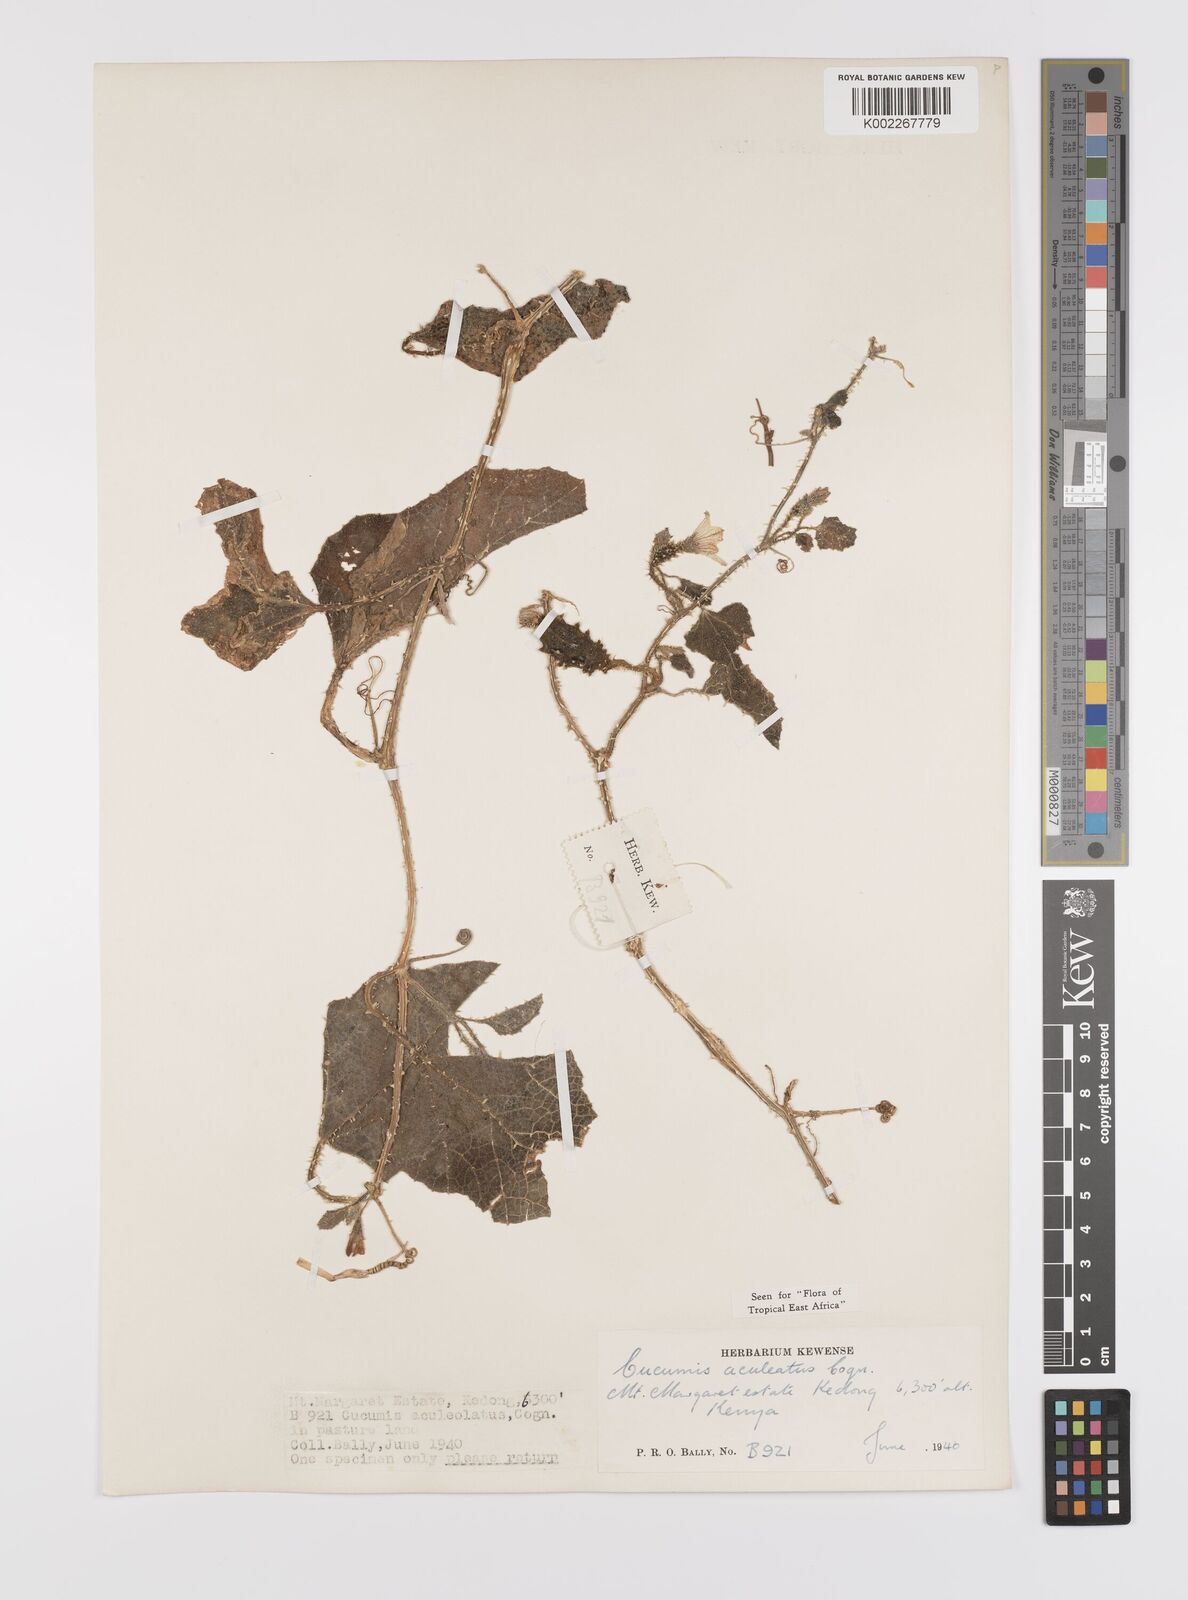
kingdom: Plantae
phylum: Tracheophyta
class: Magnoliopsida
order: Cucurbitales
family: Cucurbitaceae
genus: Cucumis
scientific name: Cucumis aculeatus
